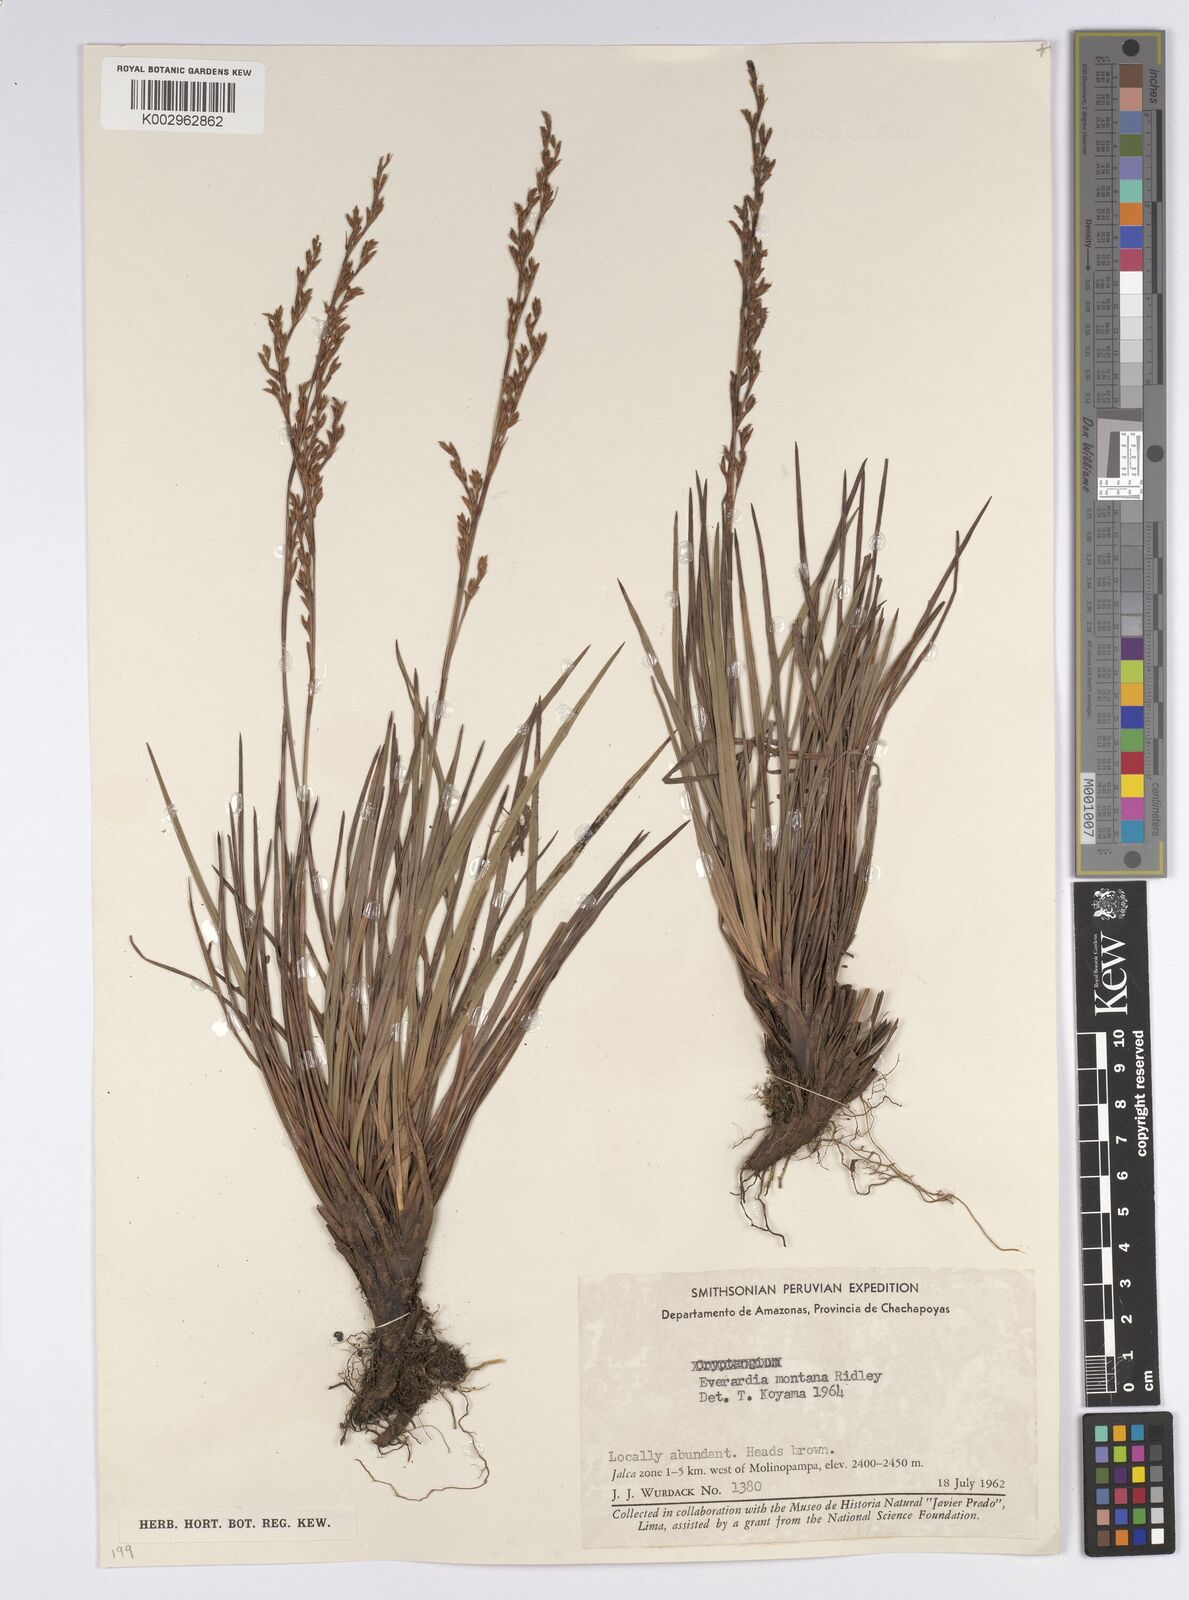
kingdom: Plantae
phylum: Tracheophyta
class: Liliopsida
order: Poales
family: Cyperaceae
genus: Cephalocarpus
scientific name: Cephalocarpus montanus
